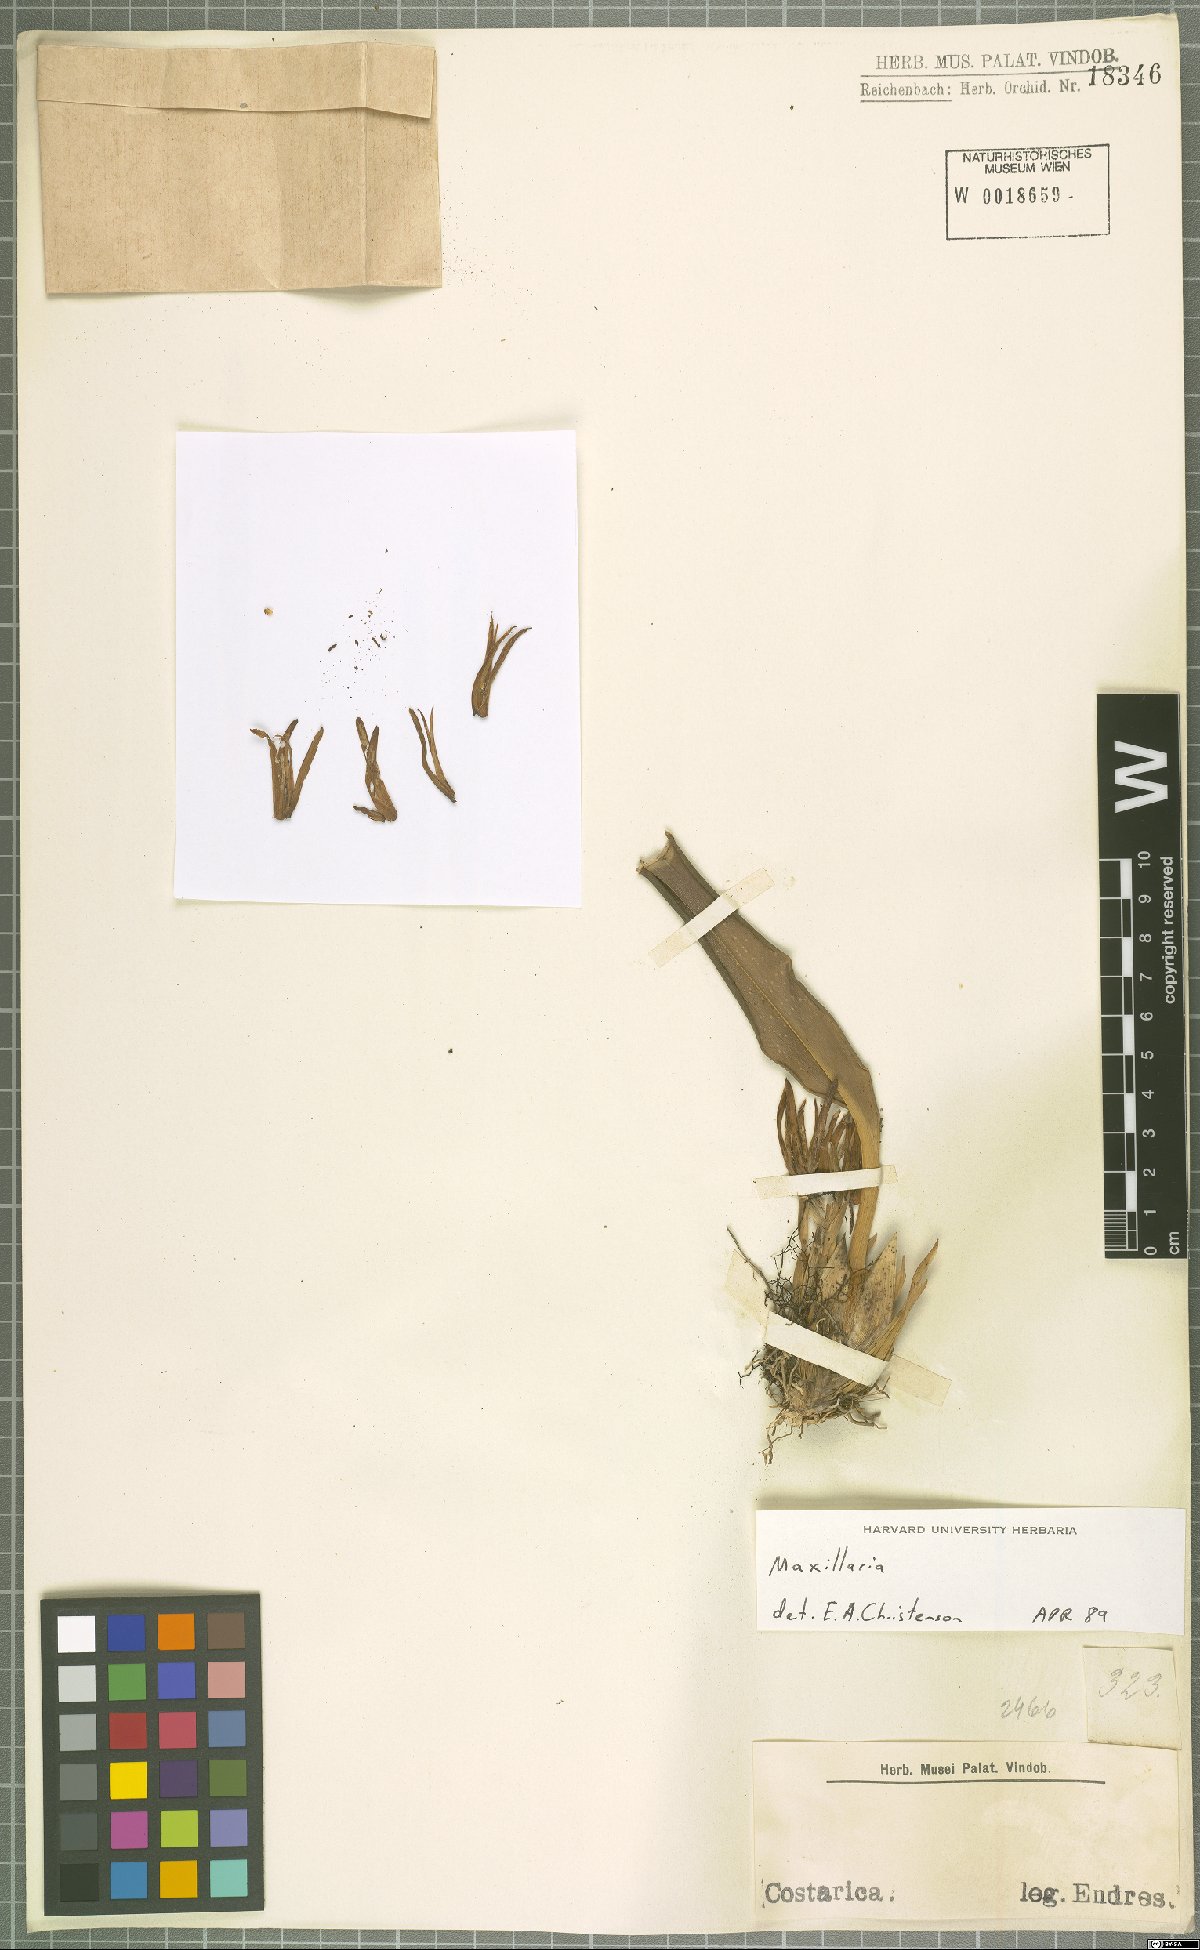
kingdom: Plantae
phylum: Tracheophyta
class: Liliopsida
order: Asparagales
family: Orchidaceae
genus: Maxillaria
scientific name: Maxillaria
